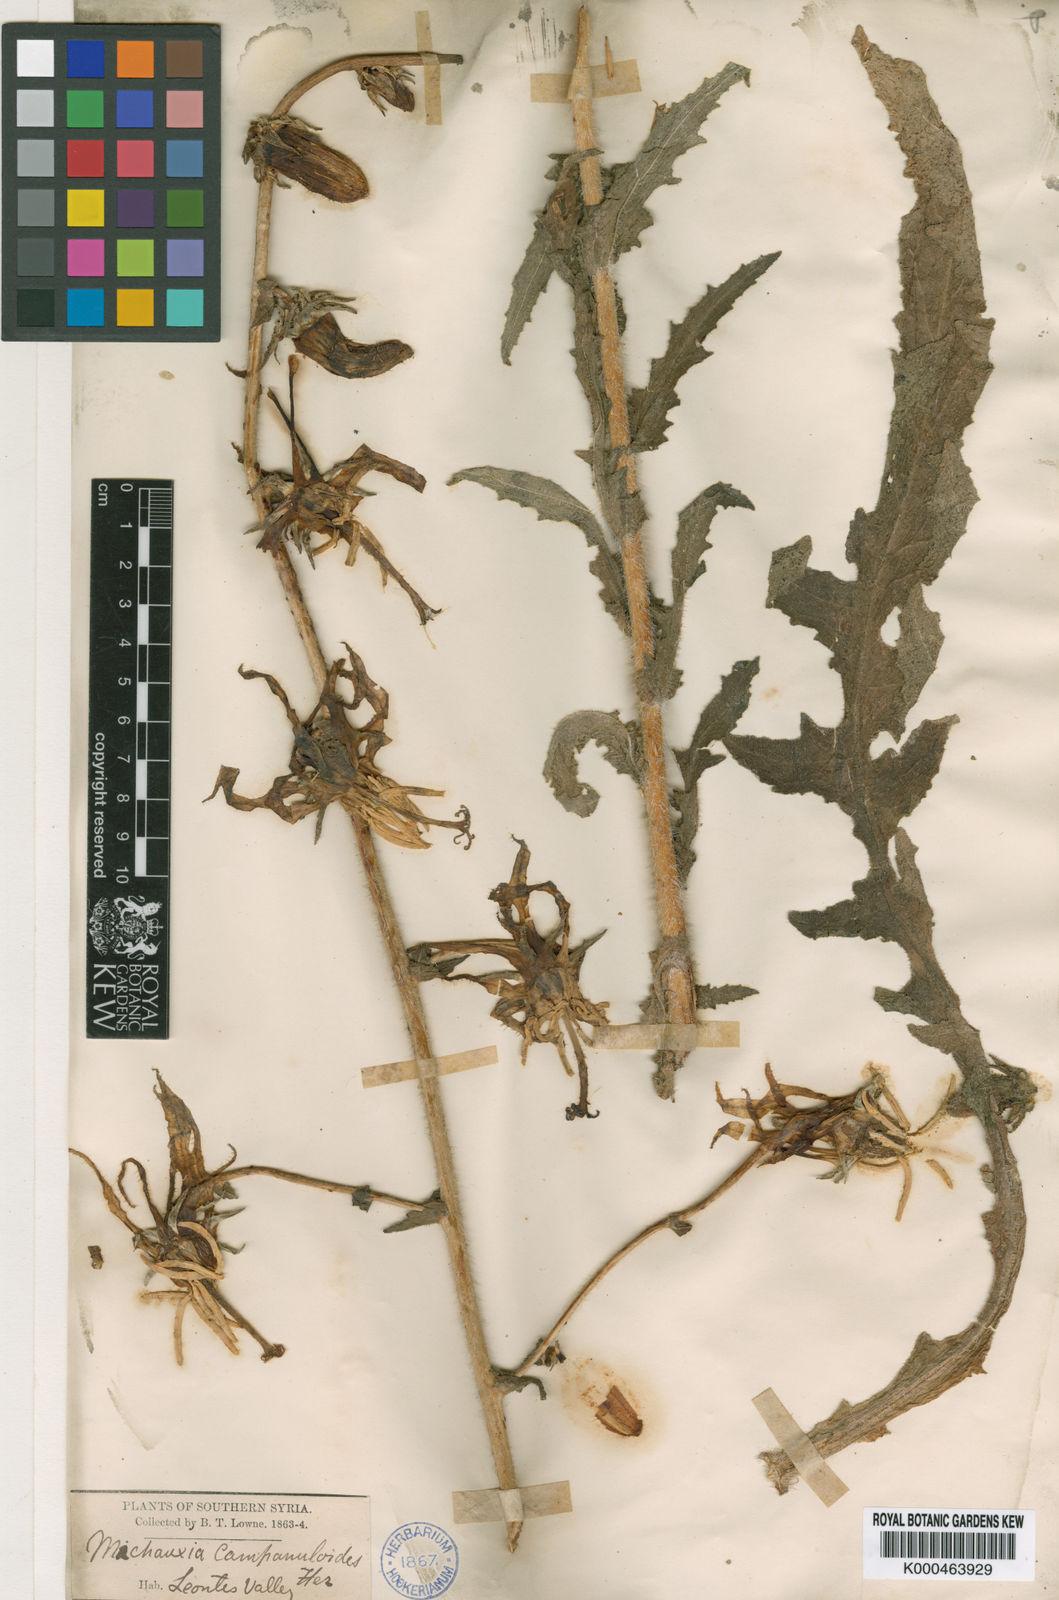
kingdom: Plantae
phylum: Tracheophyta
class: Magnoliopsida
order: Asterales
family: Campanulaceae
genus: Michauxia
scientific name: Michauxia
